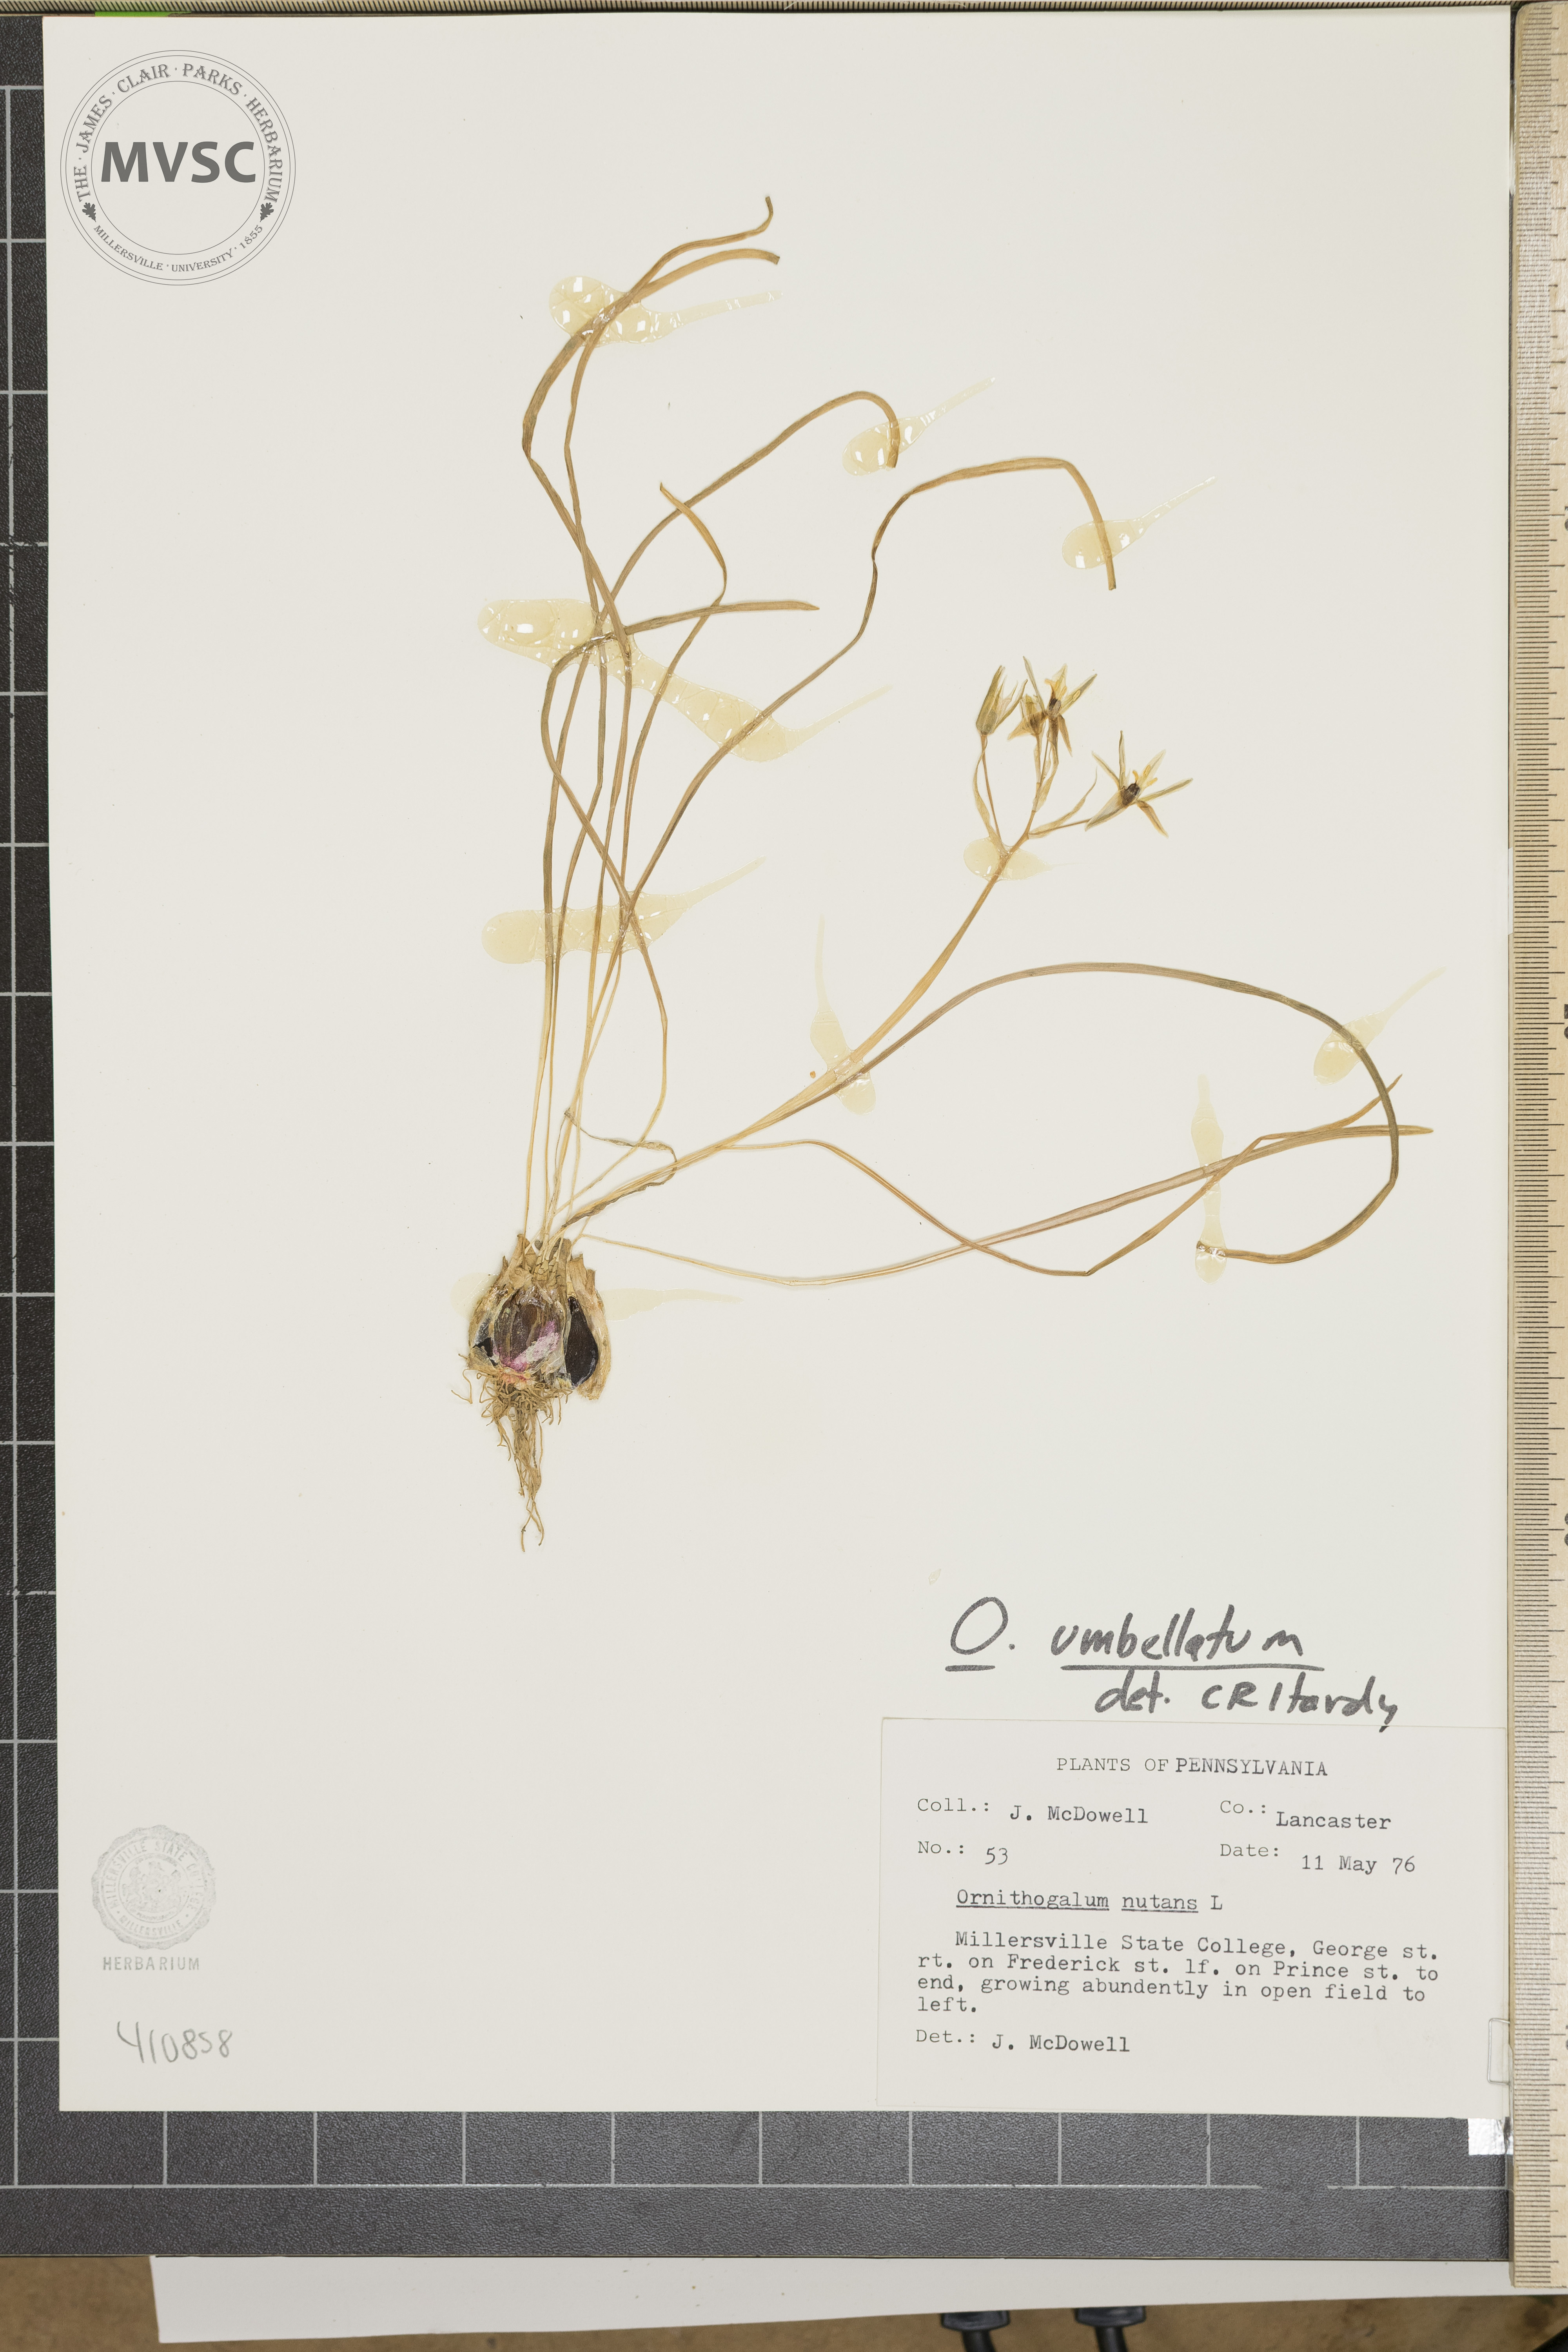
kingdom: Plantae
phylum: Tracheophyta
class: Liliopsida
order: Asparagales
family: Asparagaceae
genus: Ornithogalum
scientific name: Ornithogalum umbellatum
